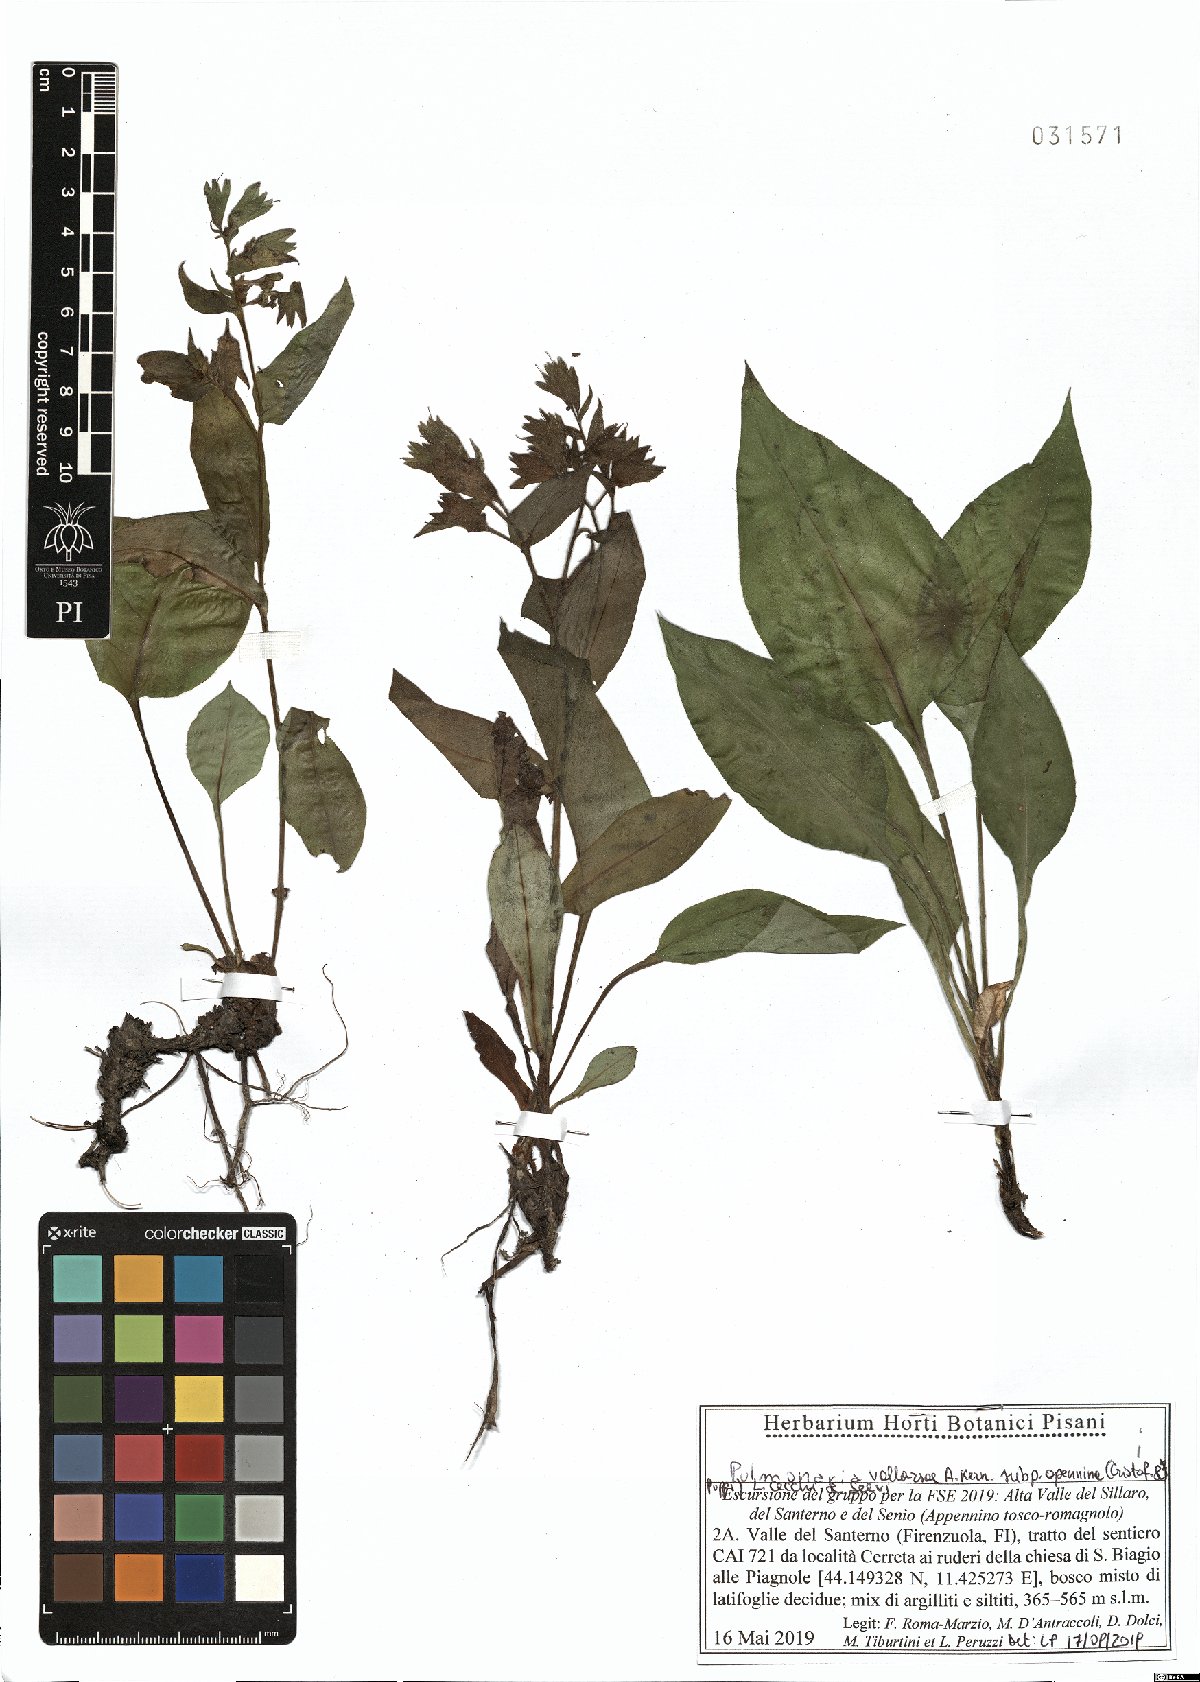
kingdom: Plantae
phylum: Tracheophyta
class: Magnoliopsida
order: Boraginales
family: Boraginaceae
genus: Pulmonaria
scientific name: Pulmonaria hirta
